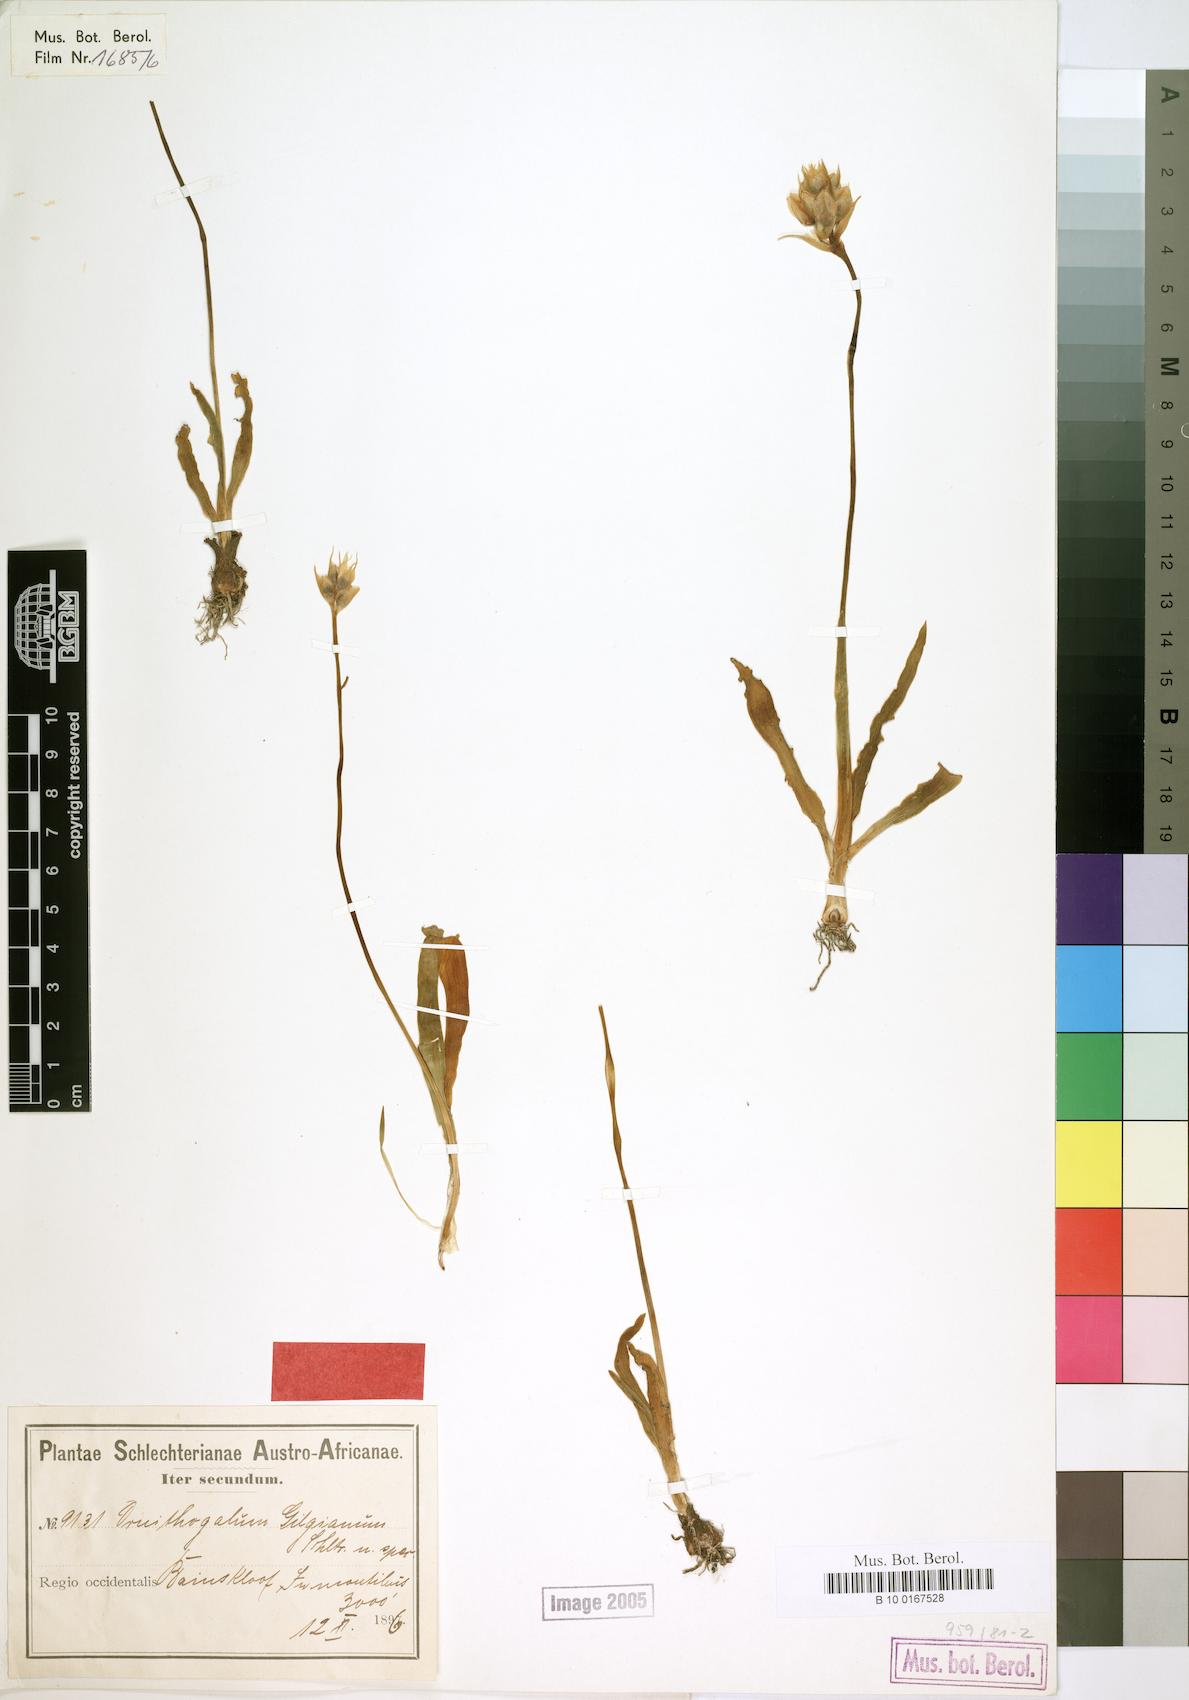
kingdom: Plantae
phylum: Tracheophyta
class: Liliopsida
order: Asparagales
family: Asparagaceae
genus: Ornithogalum
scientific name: Ornithogalum thyrsoides
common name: Chincherinchee
